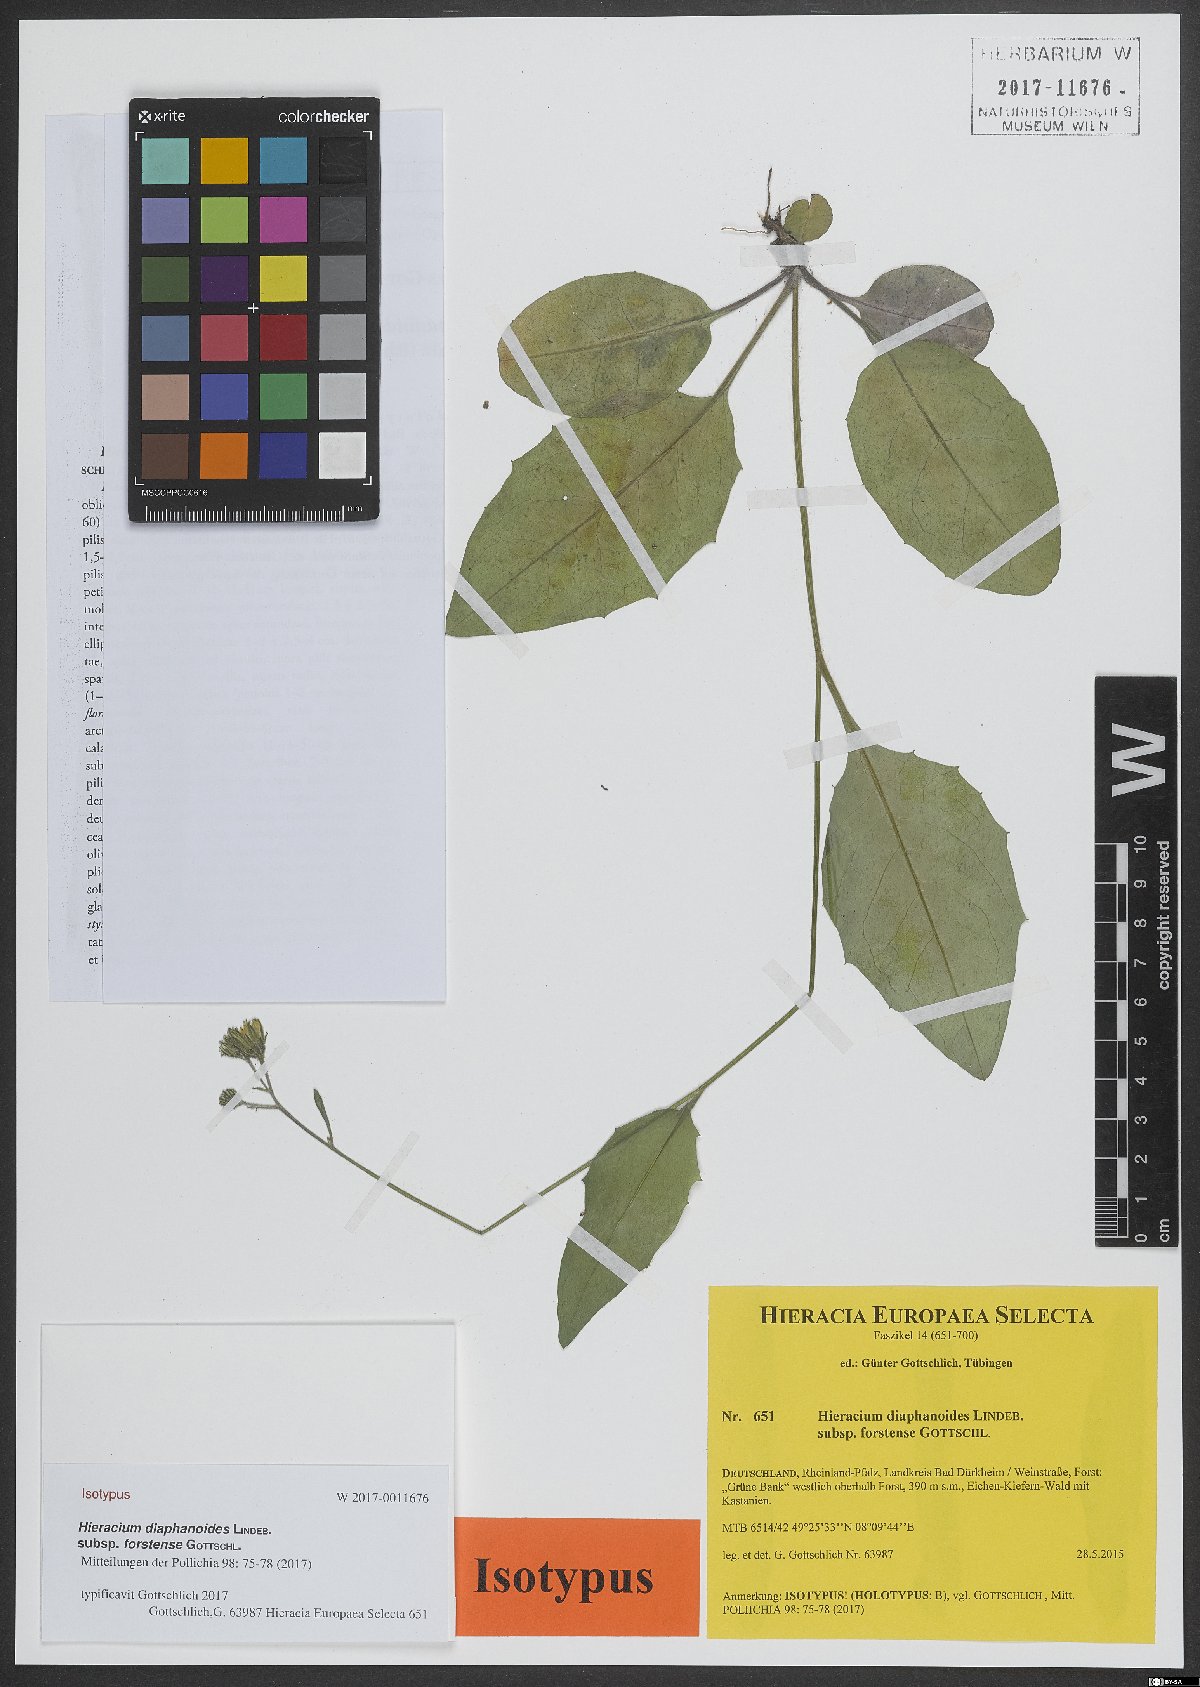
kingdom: Plantae
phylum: Tracheophyta
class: Magnoliopsida
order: Asterales
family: Asteraceae
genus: Hieracium
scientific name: Hieracium diaphanoides
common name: Fine-bracted hawkweed
